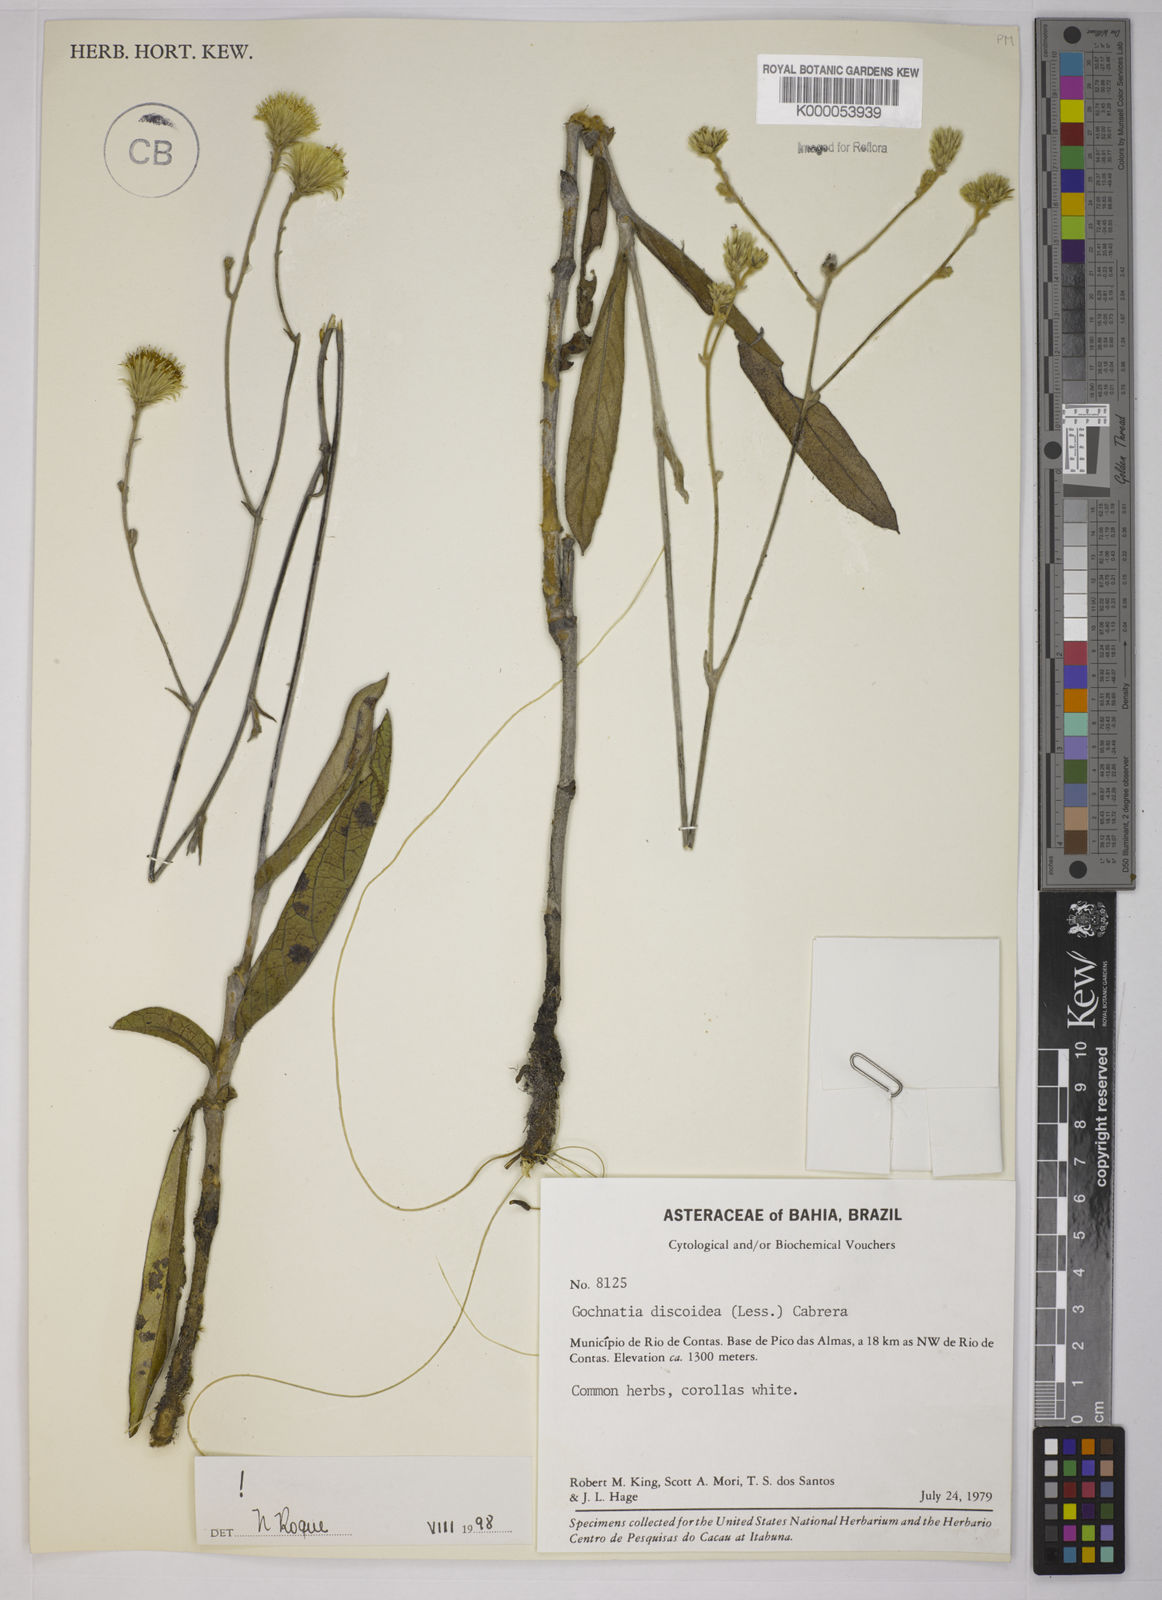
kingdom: Plantae
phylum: Tracheophyta
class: Magnoliopsida
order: Asterales
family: Asteraceae
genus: Richterago
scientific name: Richterago discoidea
